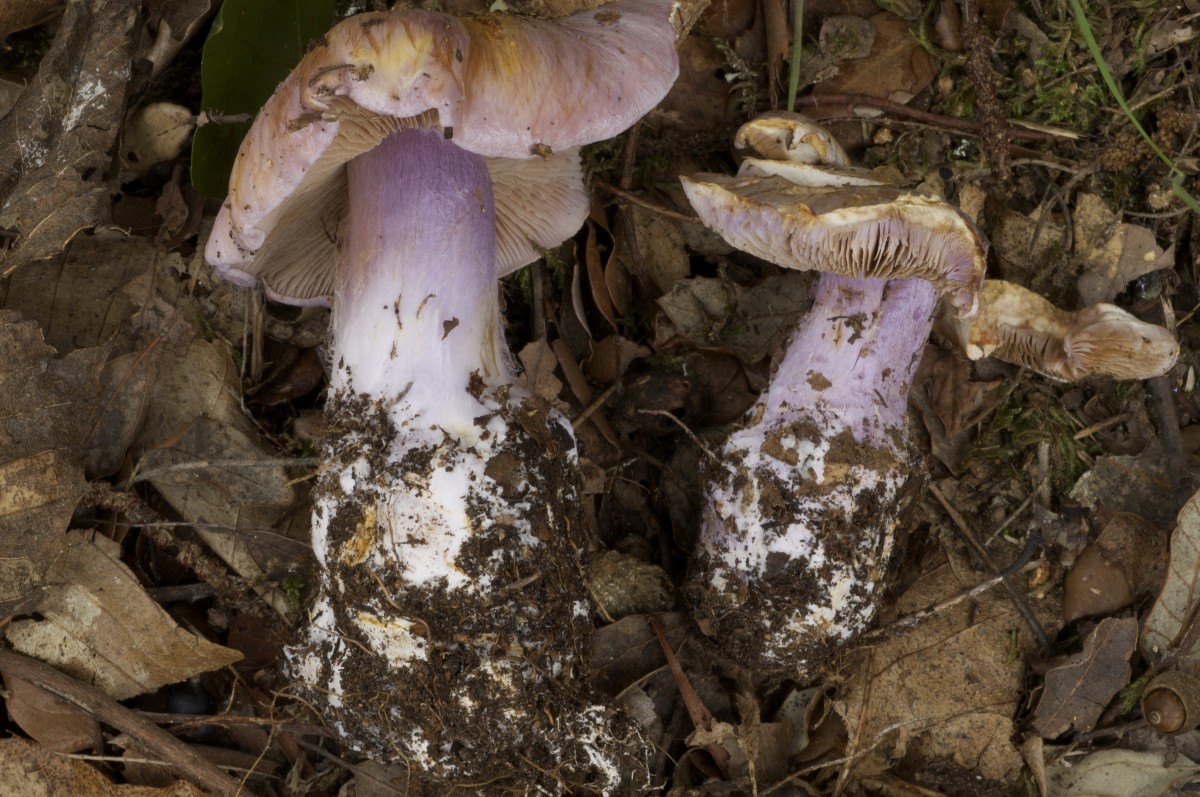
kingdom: Fungi
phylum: Basidiomycota
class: Agaricomycetes
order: Agaricales
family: Cortinariaceae
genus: Calonarius
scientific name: Calonarius dibaphus
